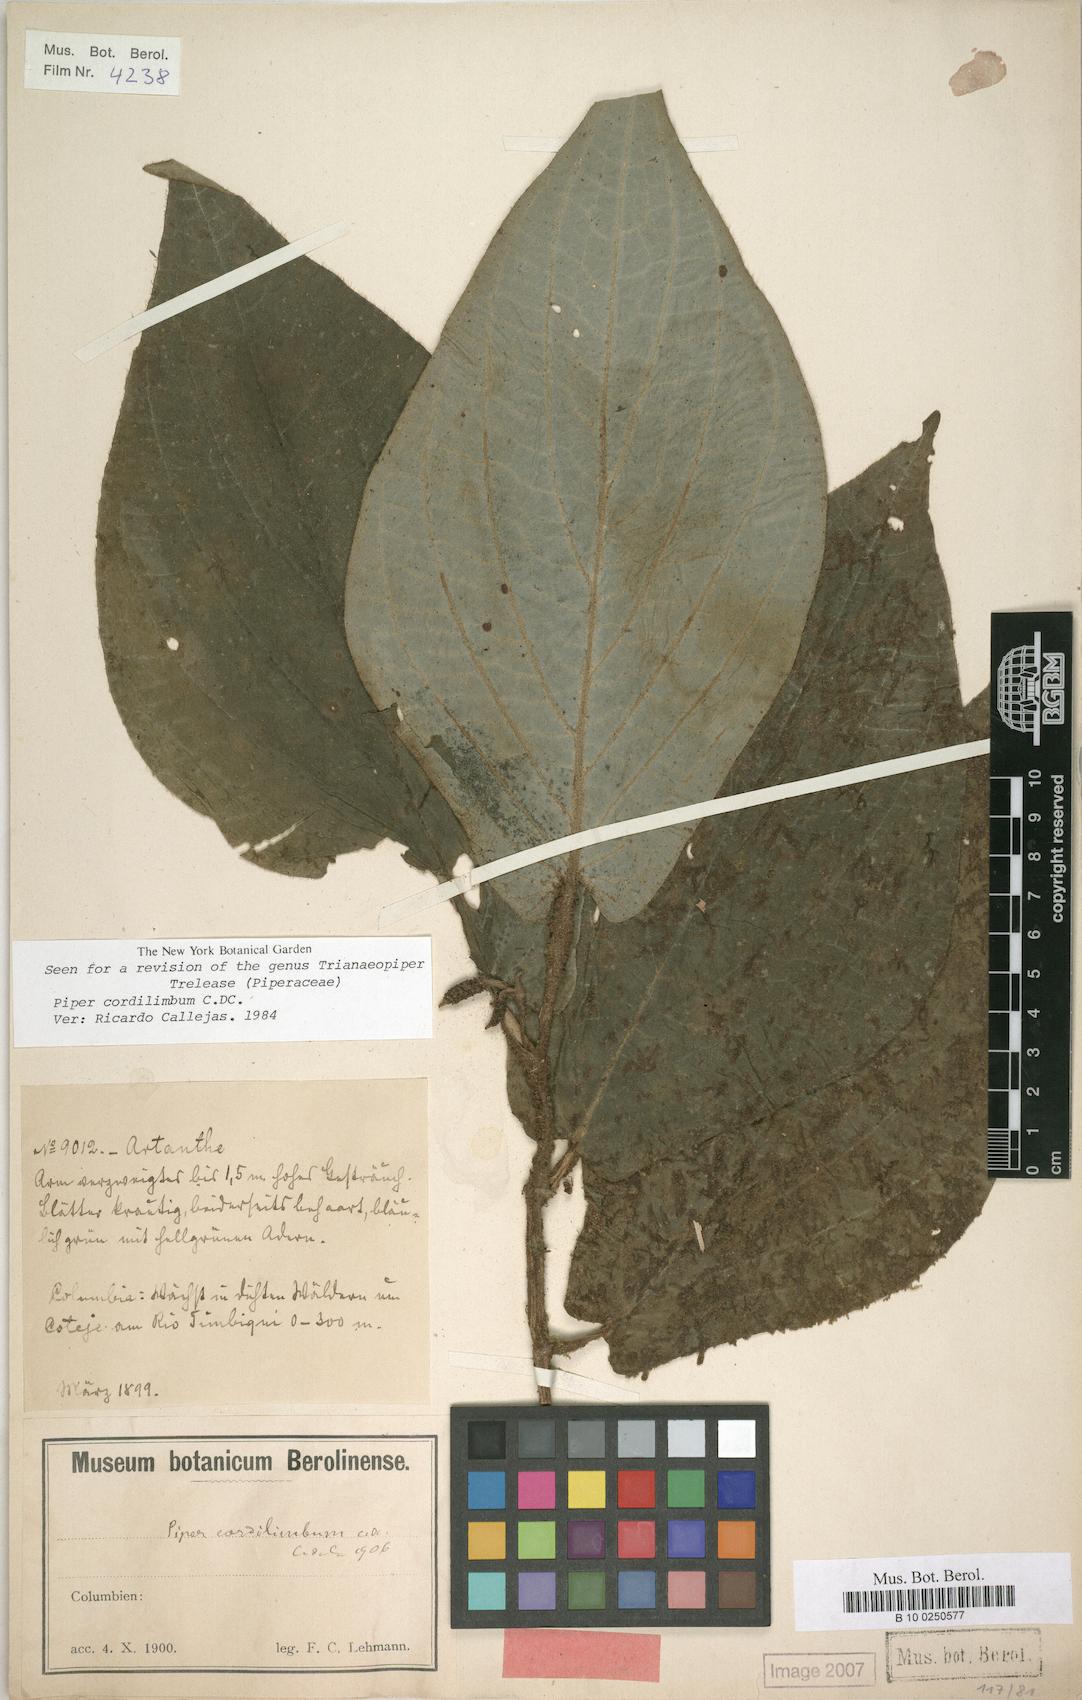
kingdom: Plantae
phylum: Tracheophyta
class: Magnoliopsida
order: Piperales
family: Piperaceae
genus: Piper
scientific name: Piper cordilimbum
